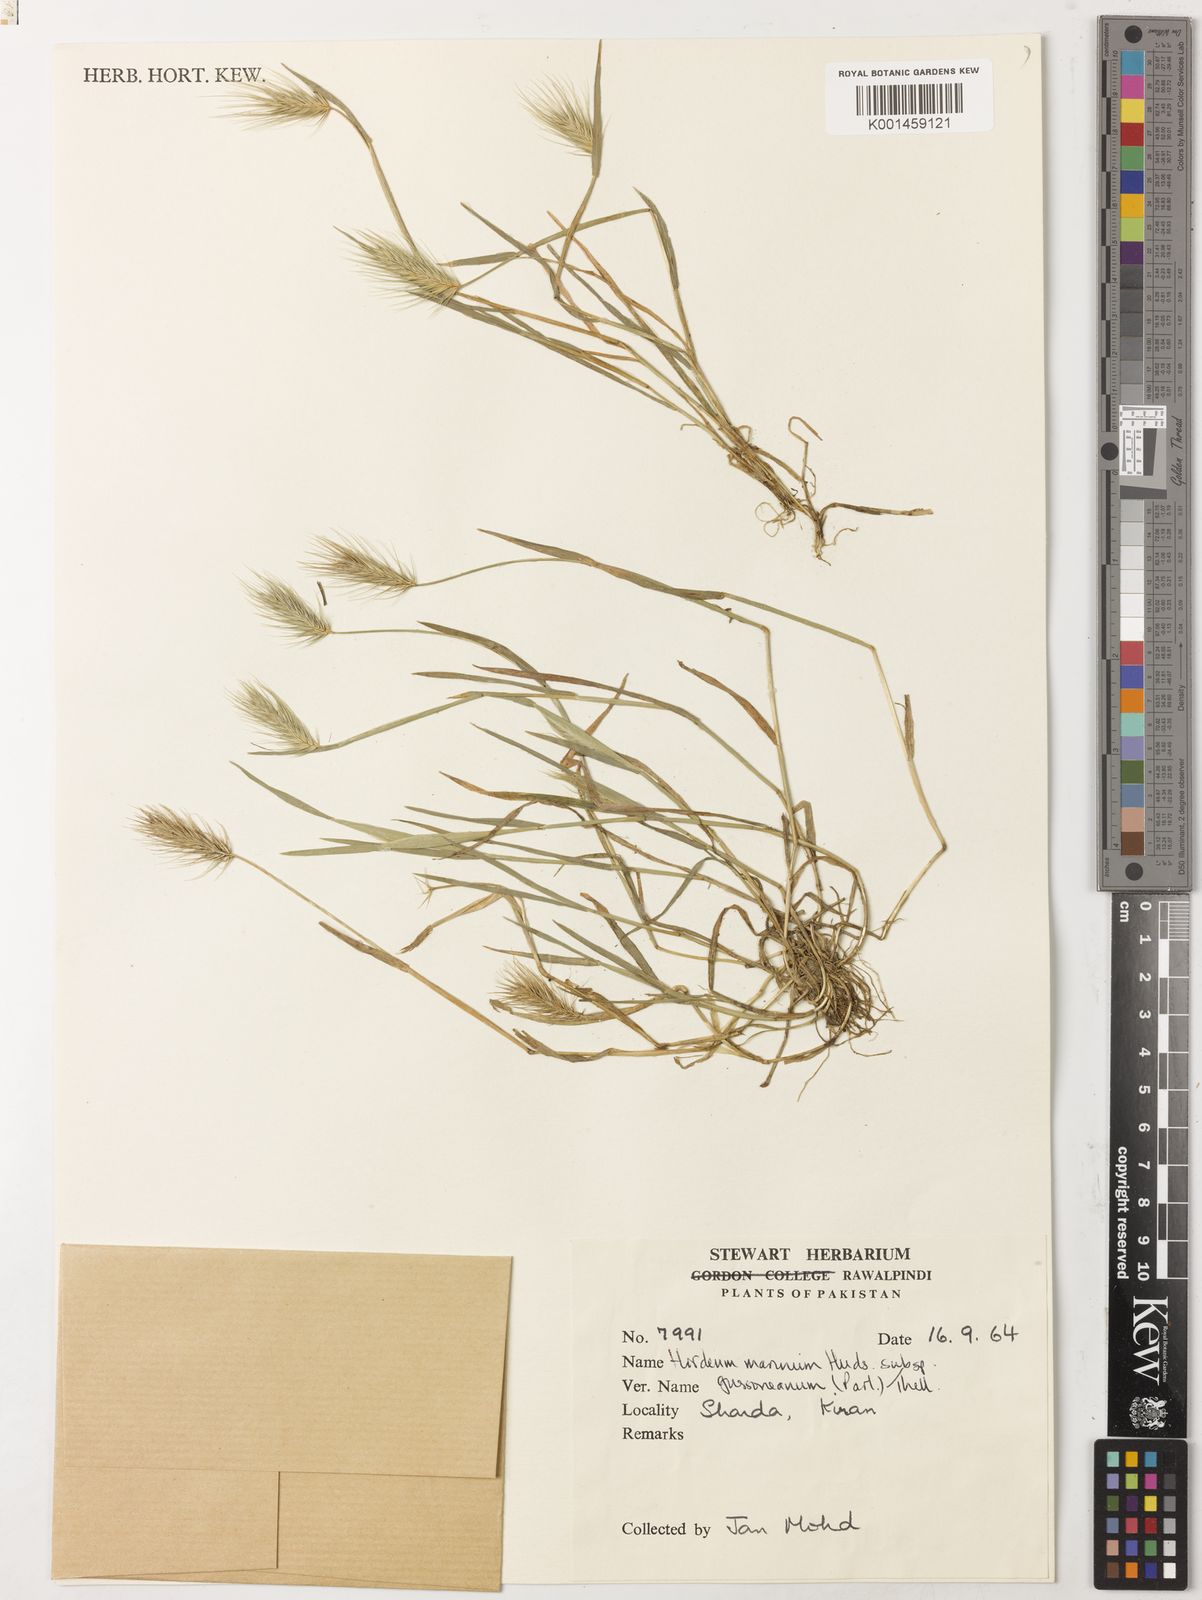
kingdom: Plantae
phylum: Tracheophyta
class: Liliopsida
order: Poales
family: Poaceae
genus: Hordeum
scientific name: Hordeum marinum
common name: Sea barley
